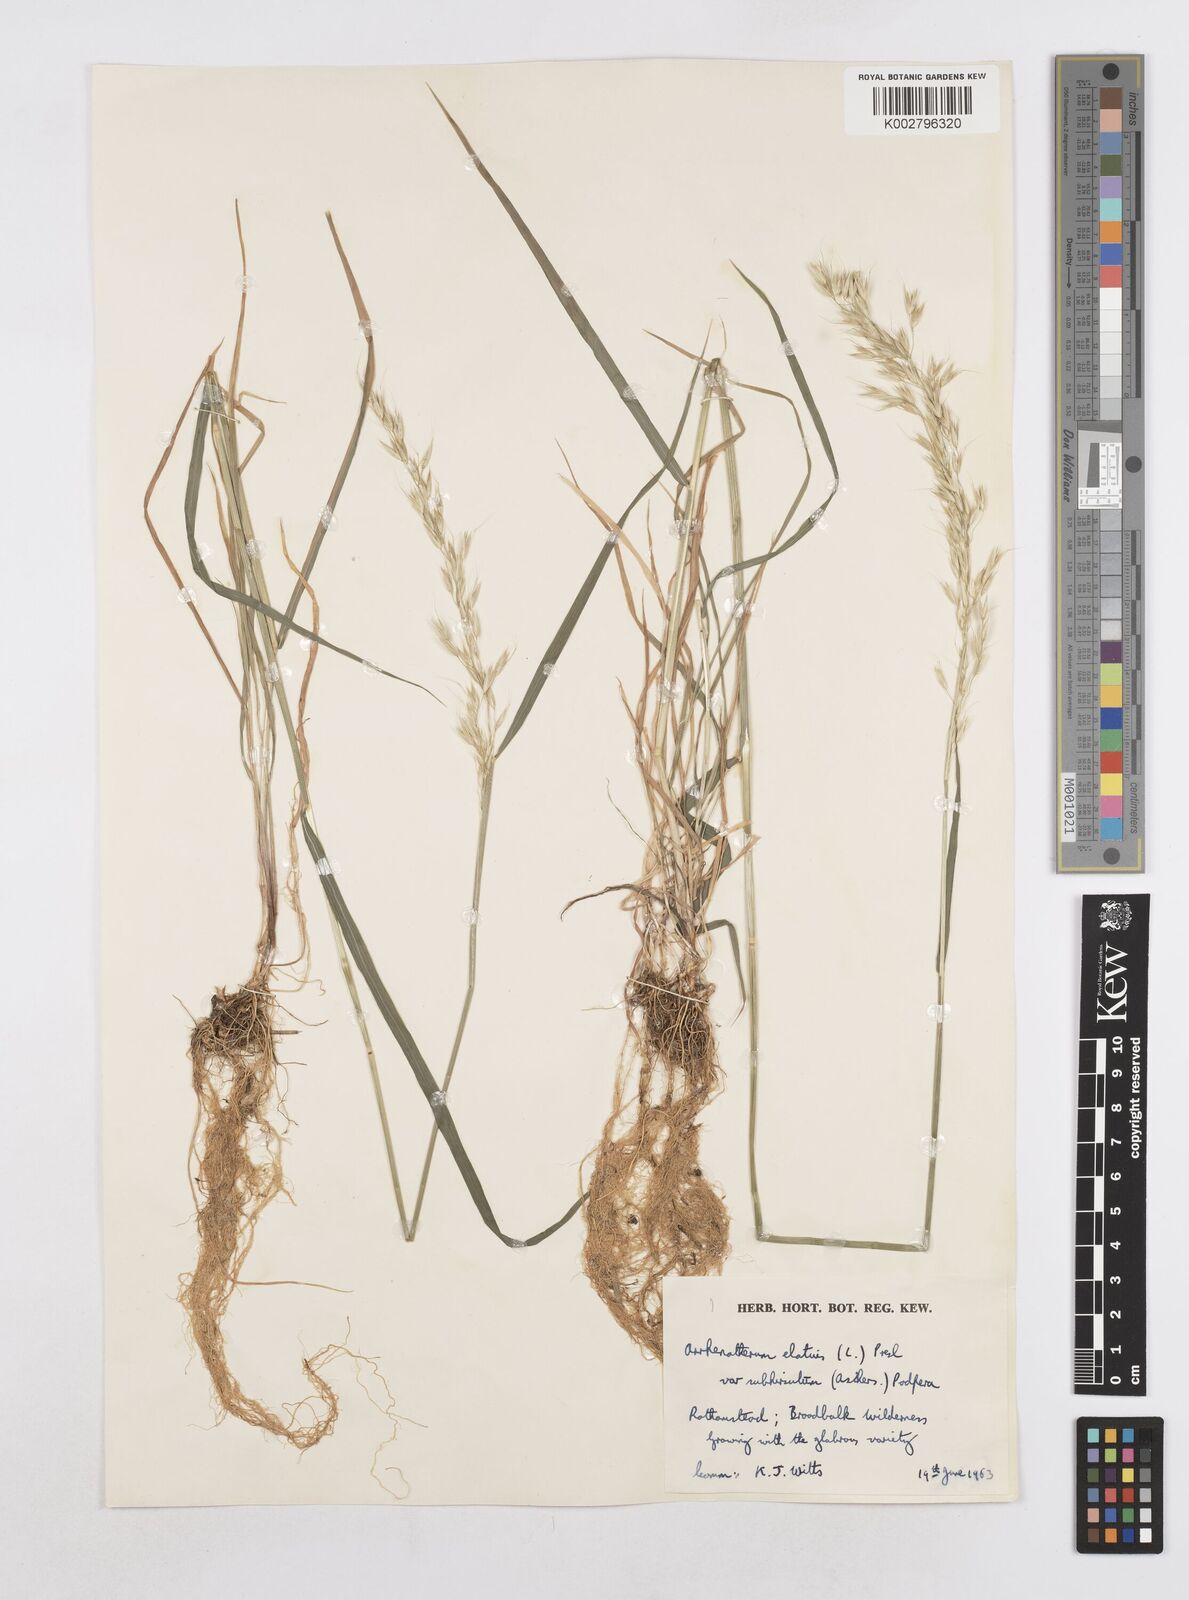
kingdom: Plantae
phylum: Tracheophyta
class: Liliopsida
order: Poales
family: Poaceae
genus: Arrhenatherum
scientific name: Arrhenatherum elatius
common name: Tall oatgrass
